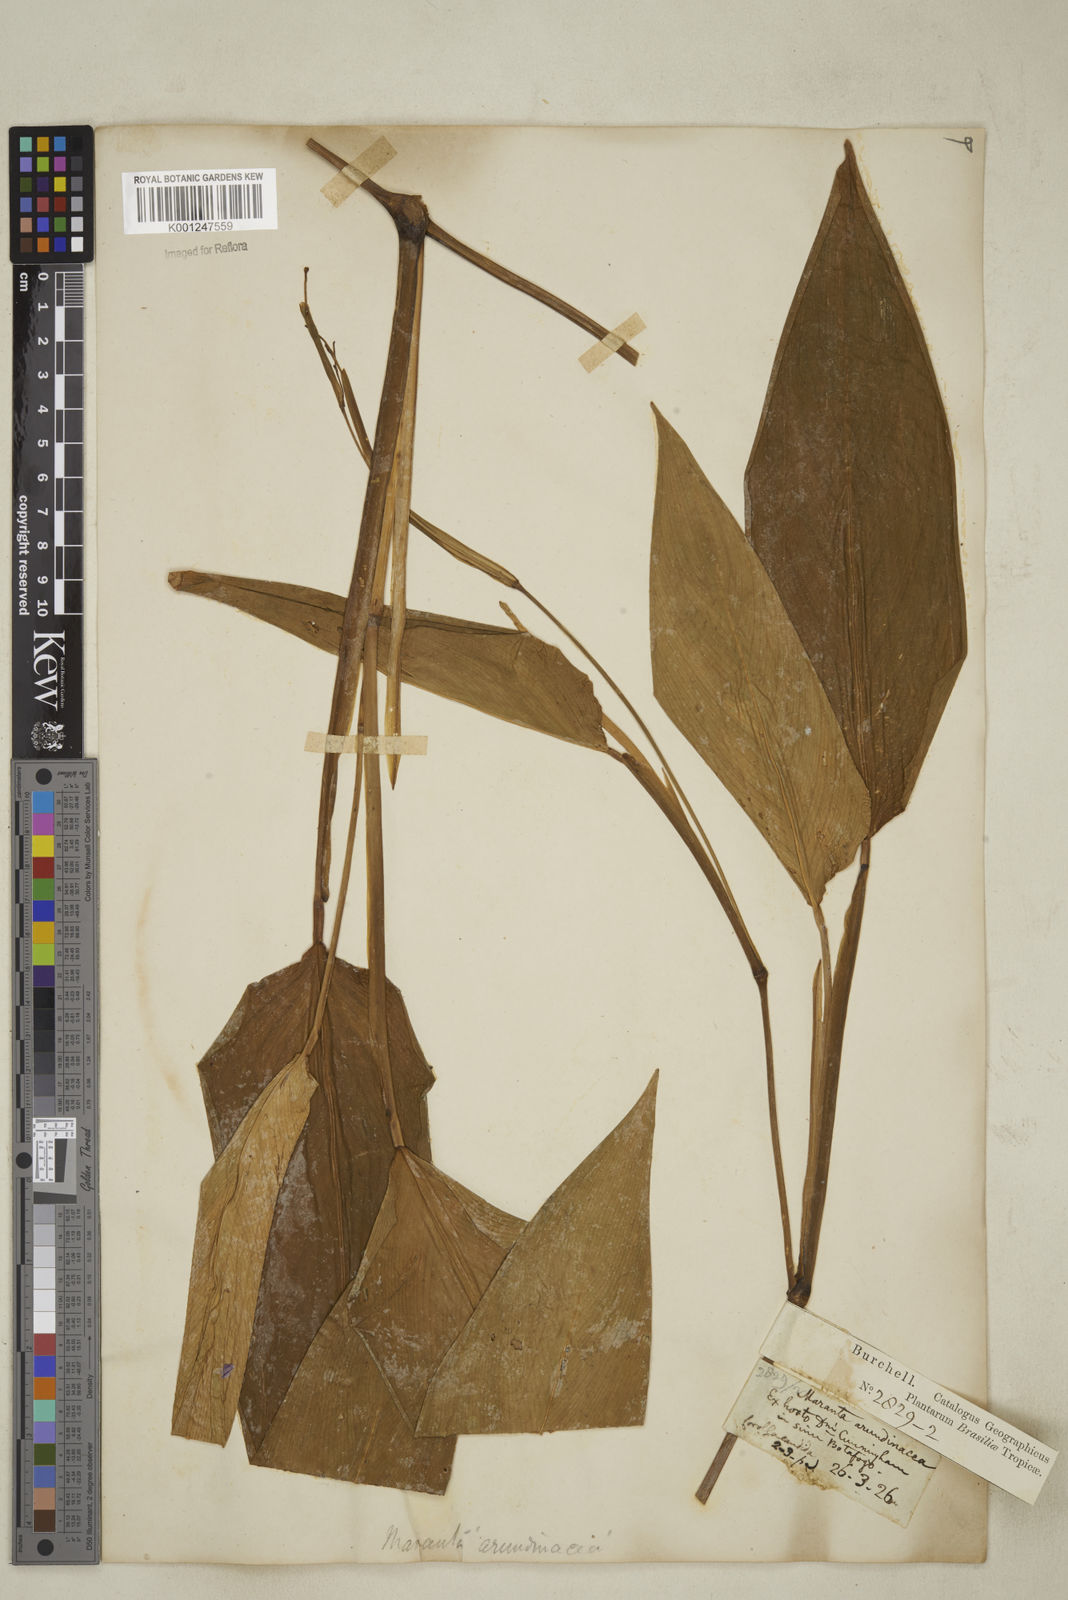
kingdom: Plantae
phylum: Tracheophyta
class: Liliopsida
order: Zingiberales
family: Marantaceae
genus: Maranta
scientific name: Maranta arundinacea
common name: Arrowroot
